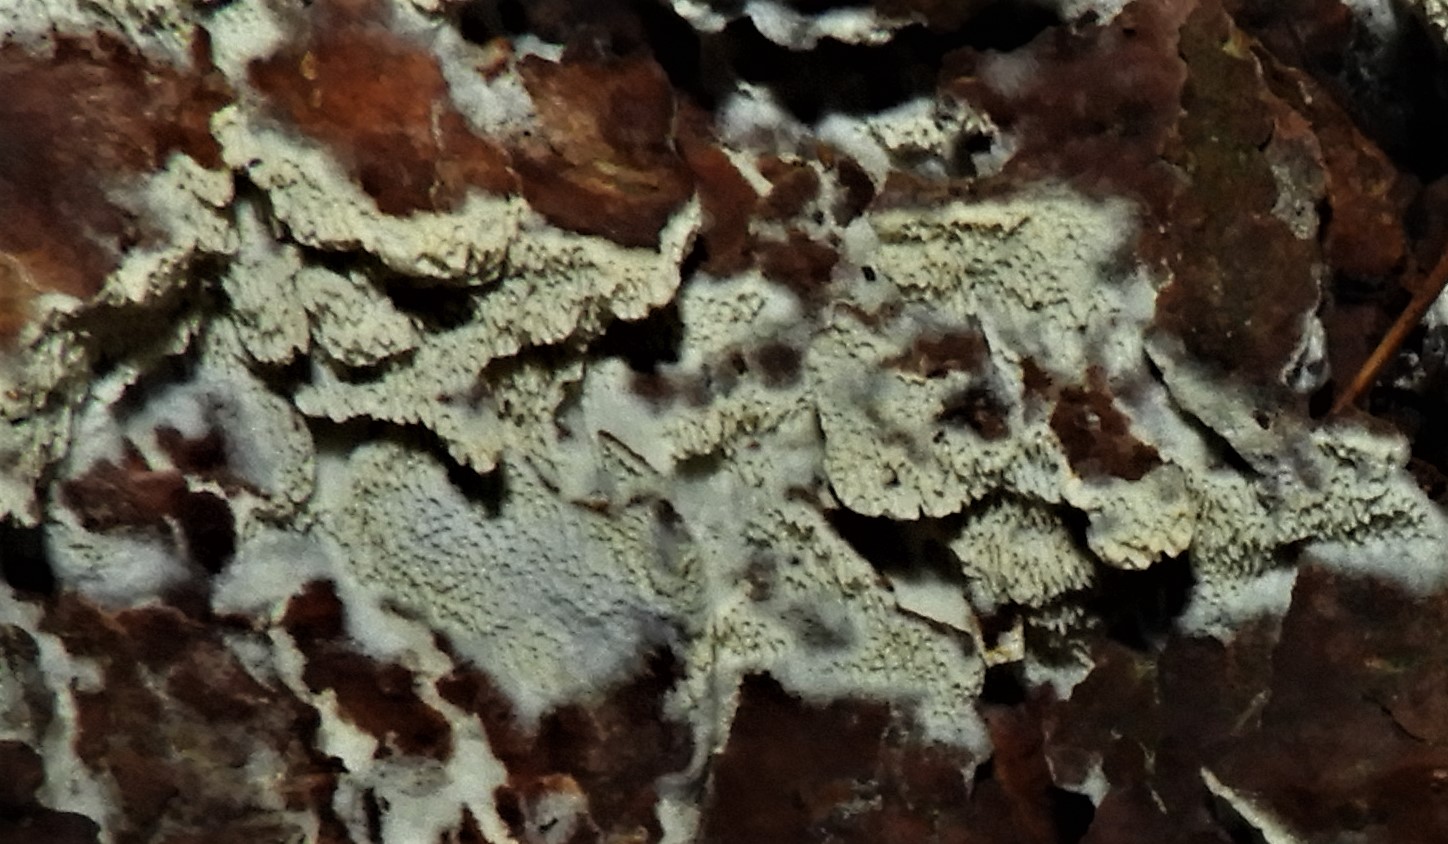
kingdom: Fungi
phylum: Basidiomycota
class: Agaricomycetes
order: Polyporales
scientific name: Polyporales
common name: poresvampordenen
